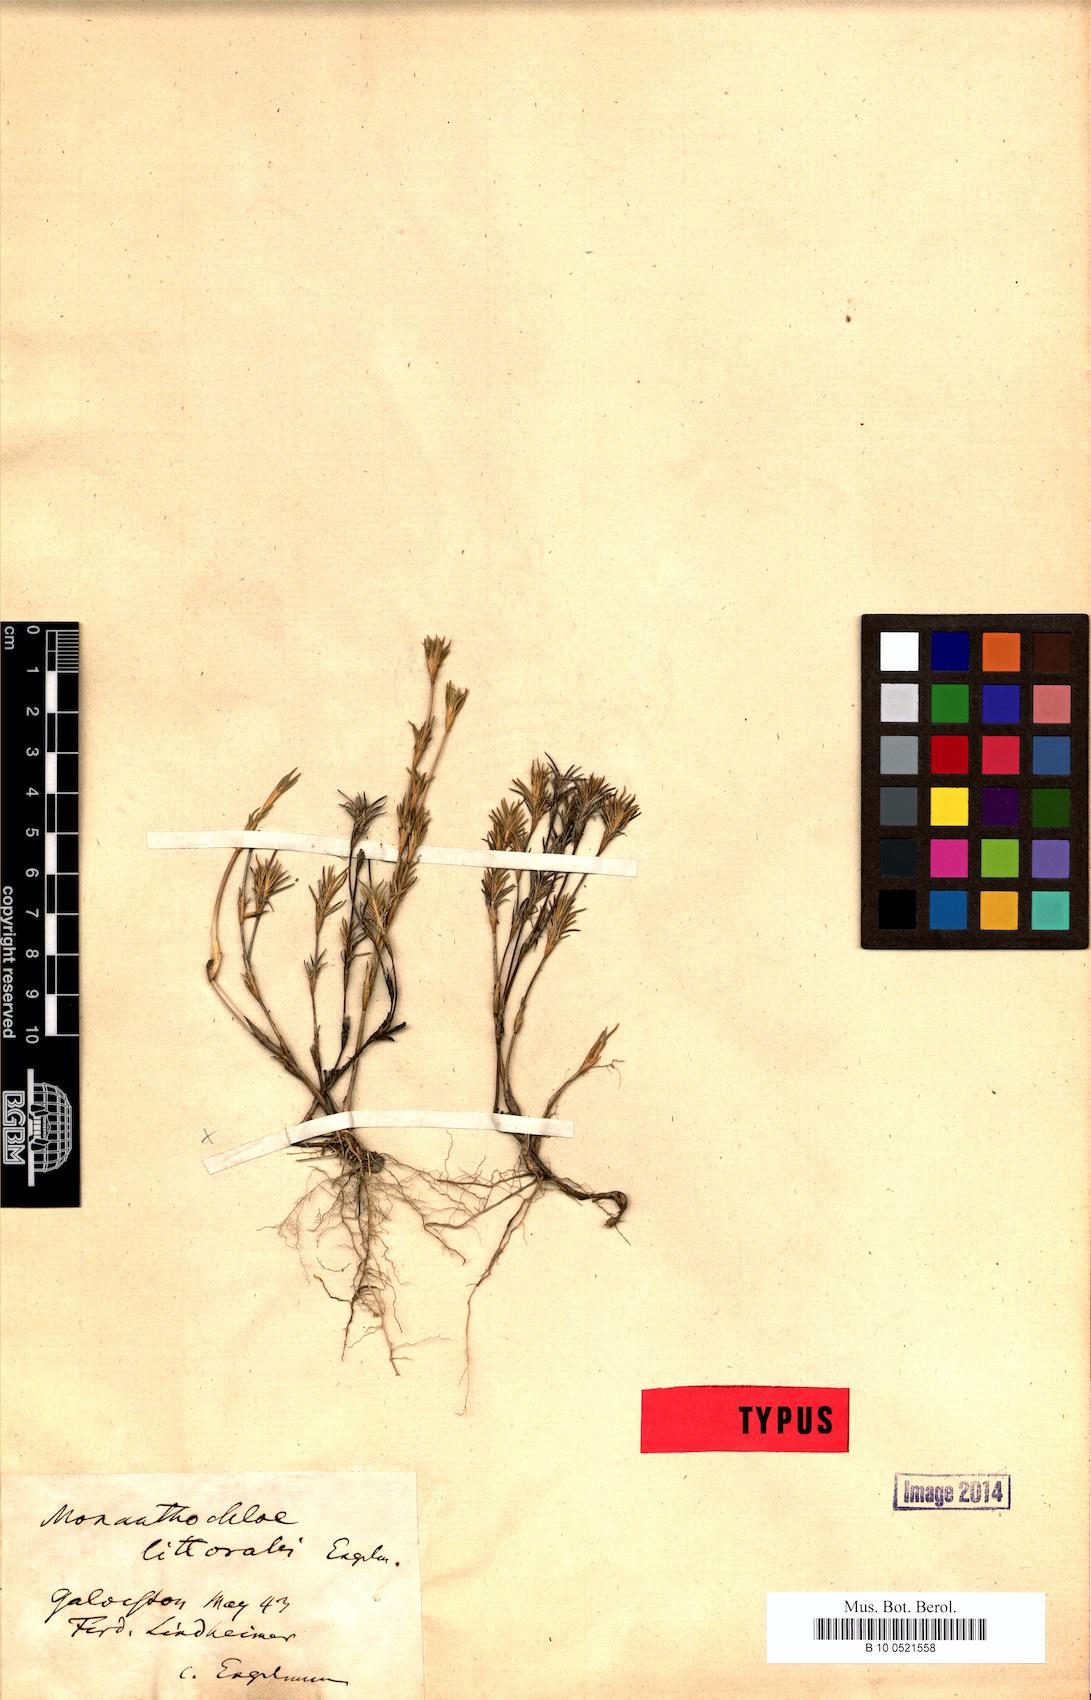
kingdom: Plantae
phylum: Tracheophyta
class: Liliopsida
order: Poales
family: Poaceae
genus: Distichlis
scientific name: Distichlis littoralis
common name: Shore grass
